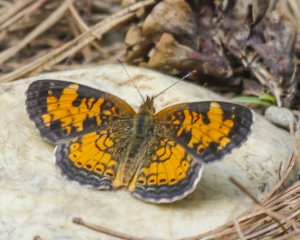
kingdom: Animalia
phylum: Arthropoda
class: Insecta
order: Lepidoptera
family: Nymphalidae
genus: Phyciodes
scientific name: Phyciodes tharos
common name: Northern Crescent
